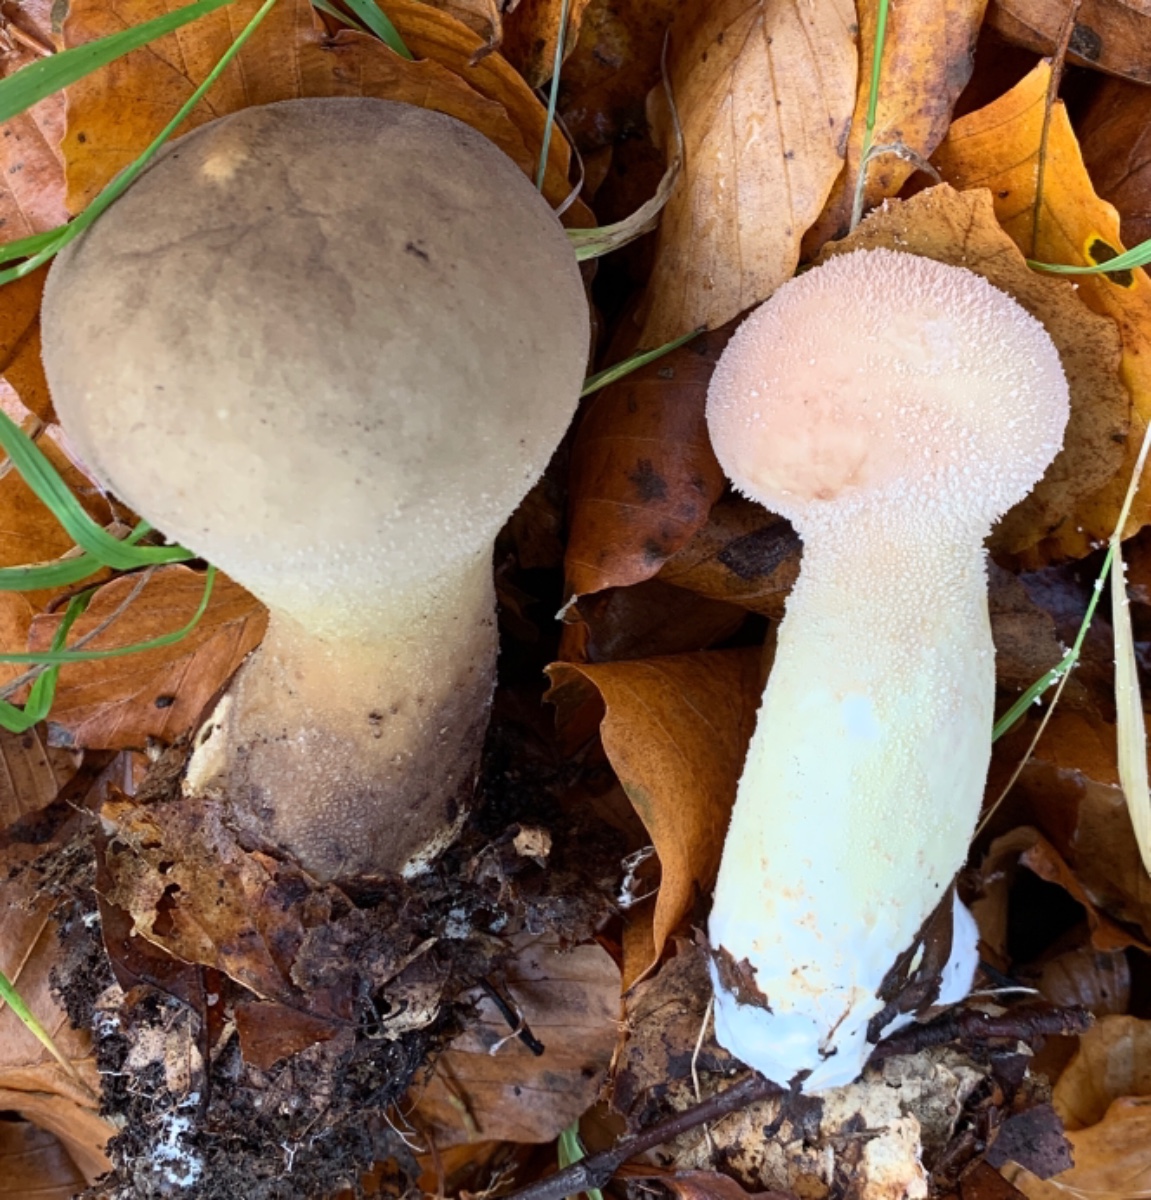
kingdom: Fungi
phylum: Basidiomycota
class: Agaricomycetes
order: Agaricales
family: Lycoperdaceae
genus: Lycoperdon
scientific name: Lycoperdon excipuliforme
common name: højstokket støvbold
